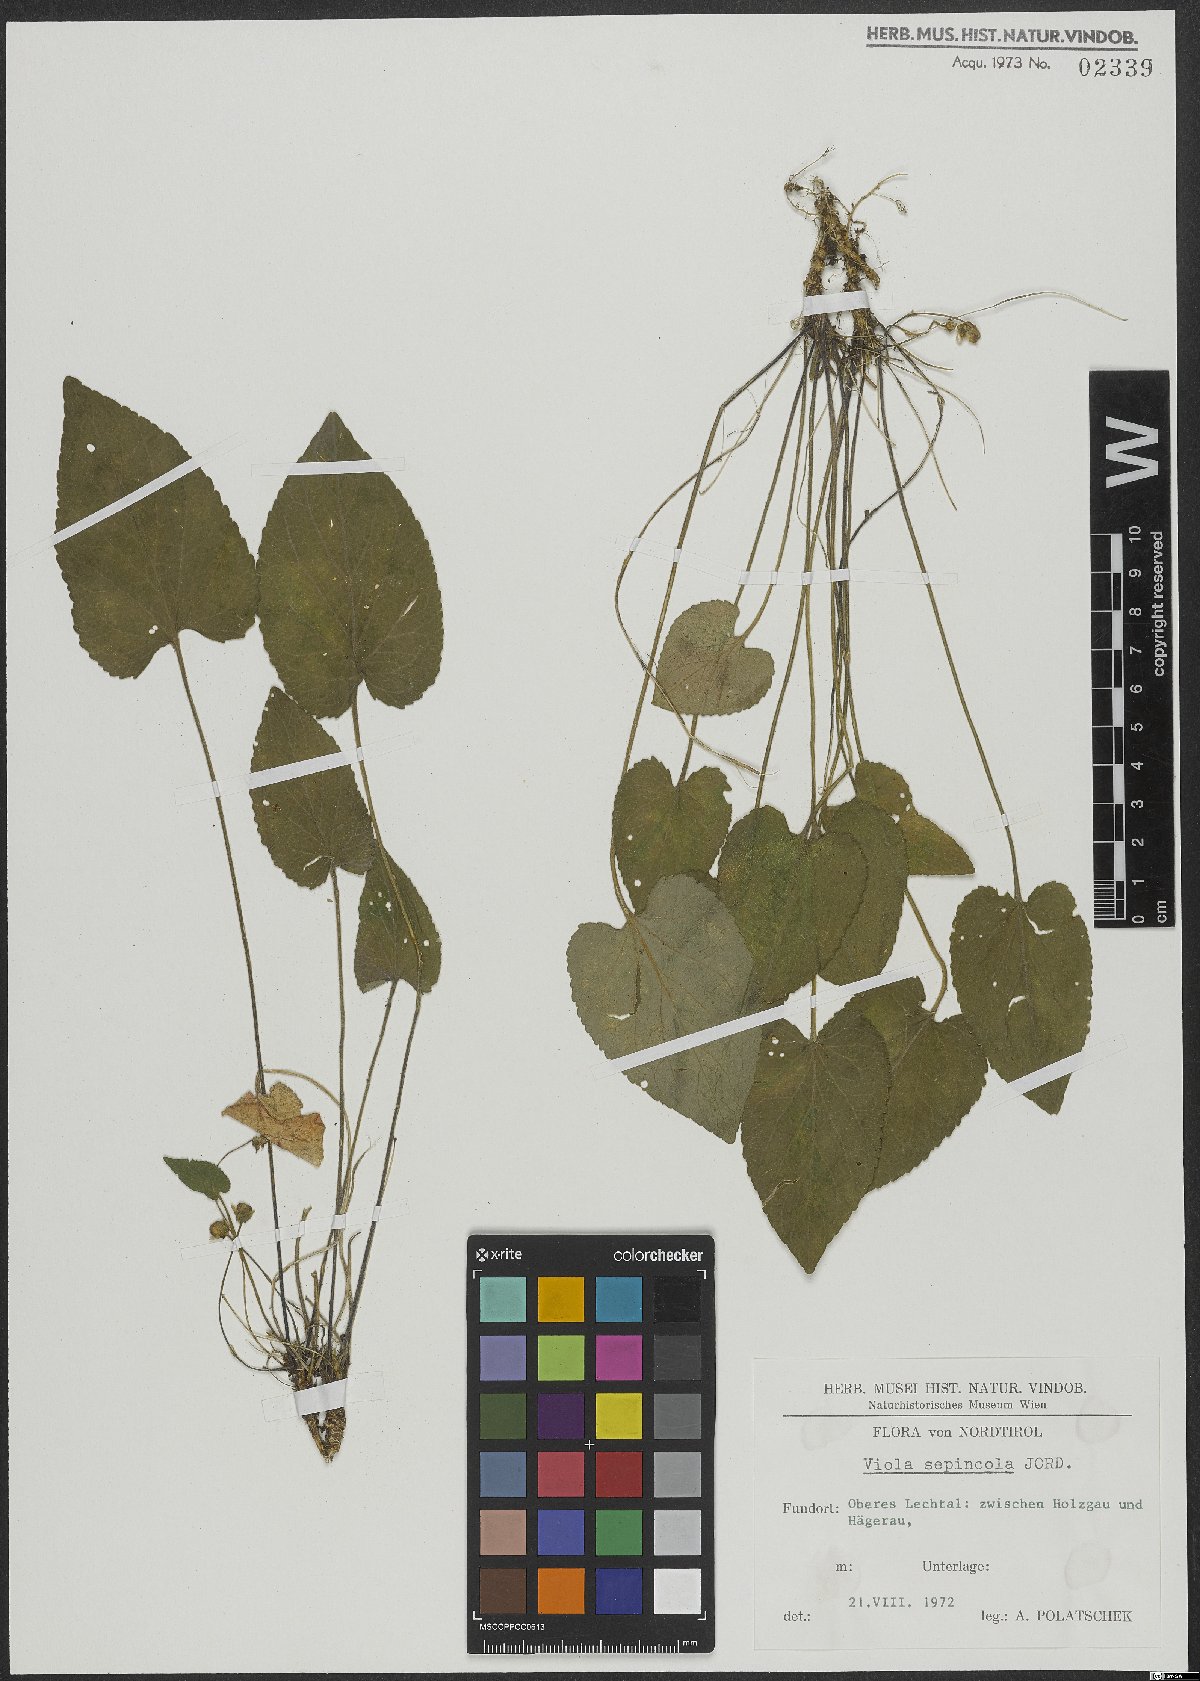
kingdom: Plantae
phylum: Tracheophyta
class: Magnoliopsida
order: Malpighiales
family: Violaceae
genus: Viola
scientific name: Viola suavis
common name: Russian violet
